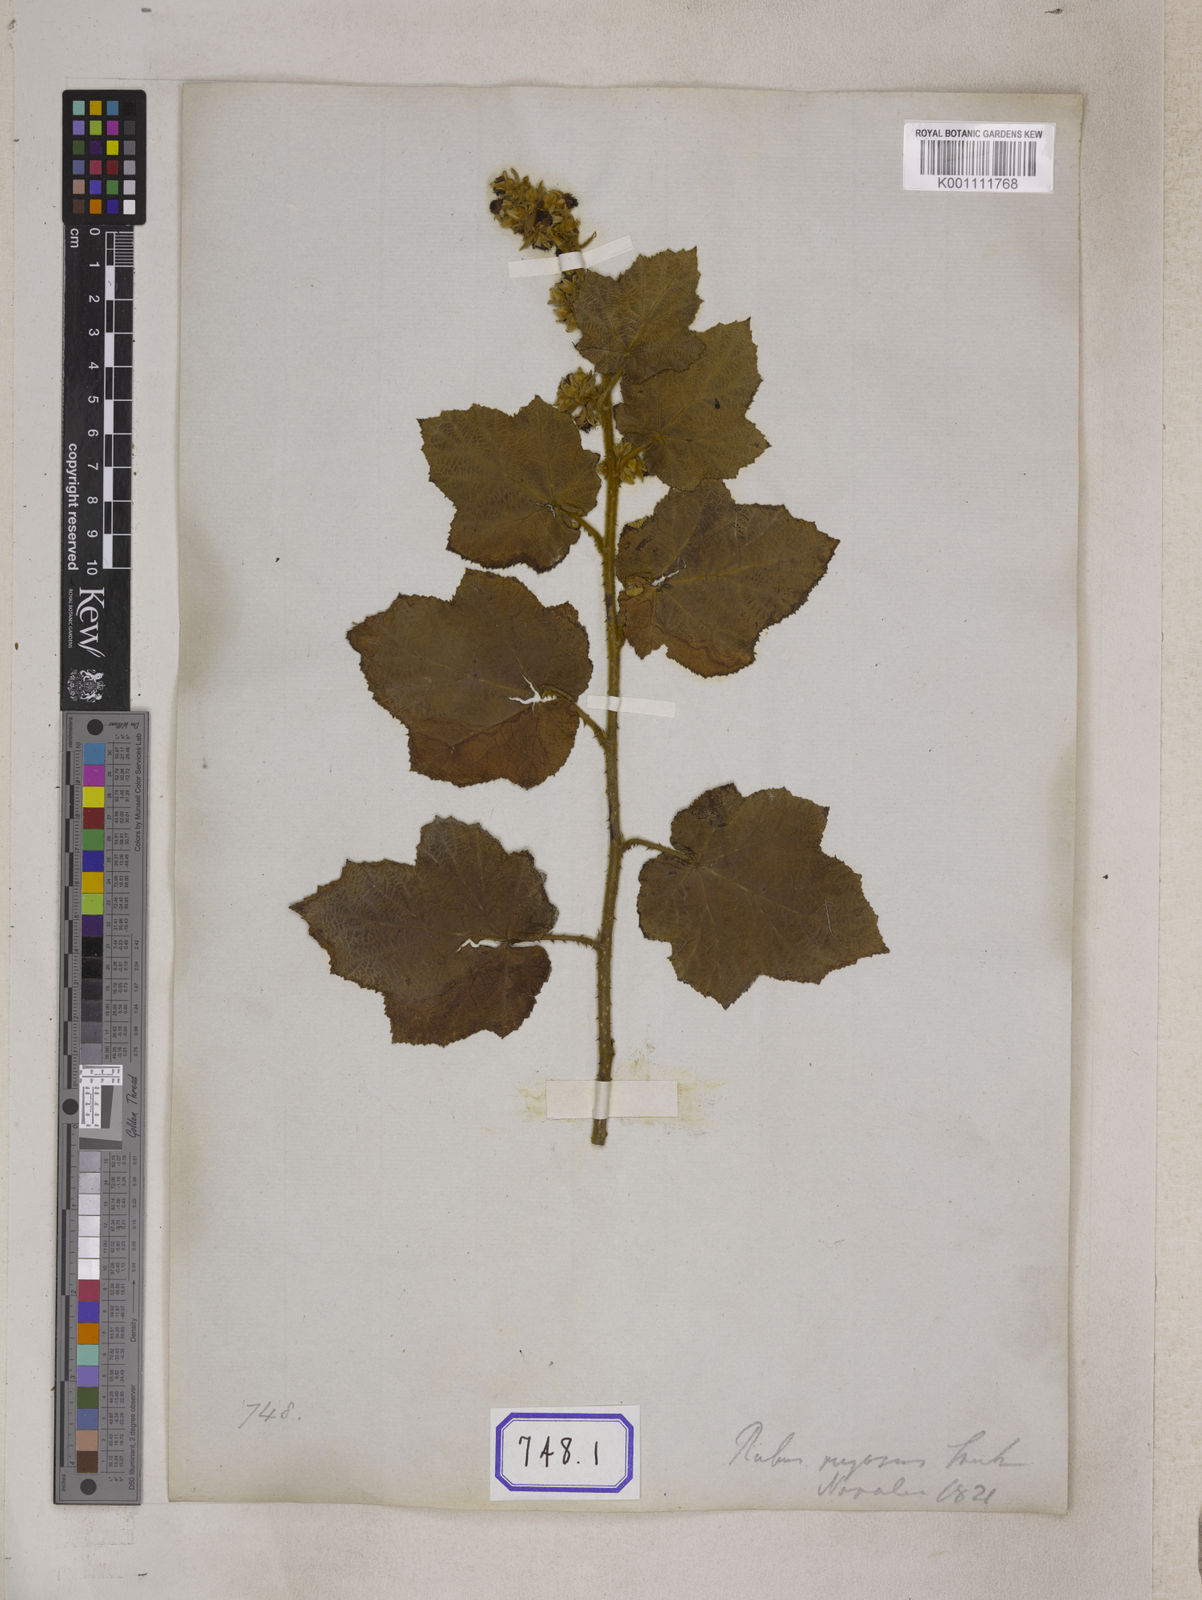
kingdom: Plantae
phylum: Tracheophyta
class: Magnoliopsida
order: Rosales
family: Rosaceae
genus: Rubus
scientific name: Rubus
